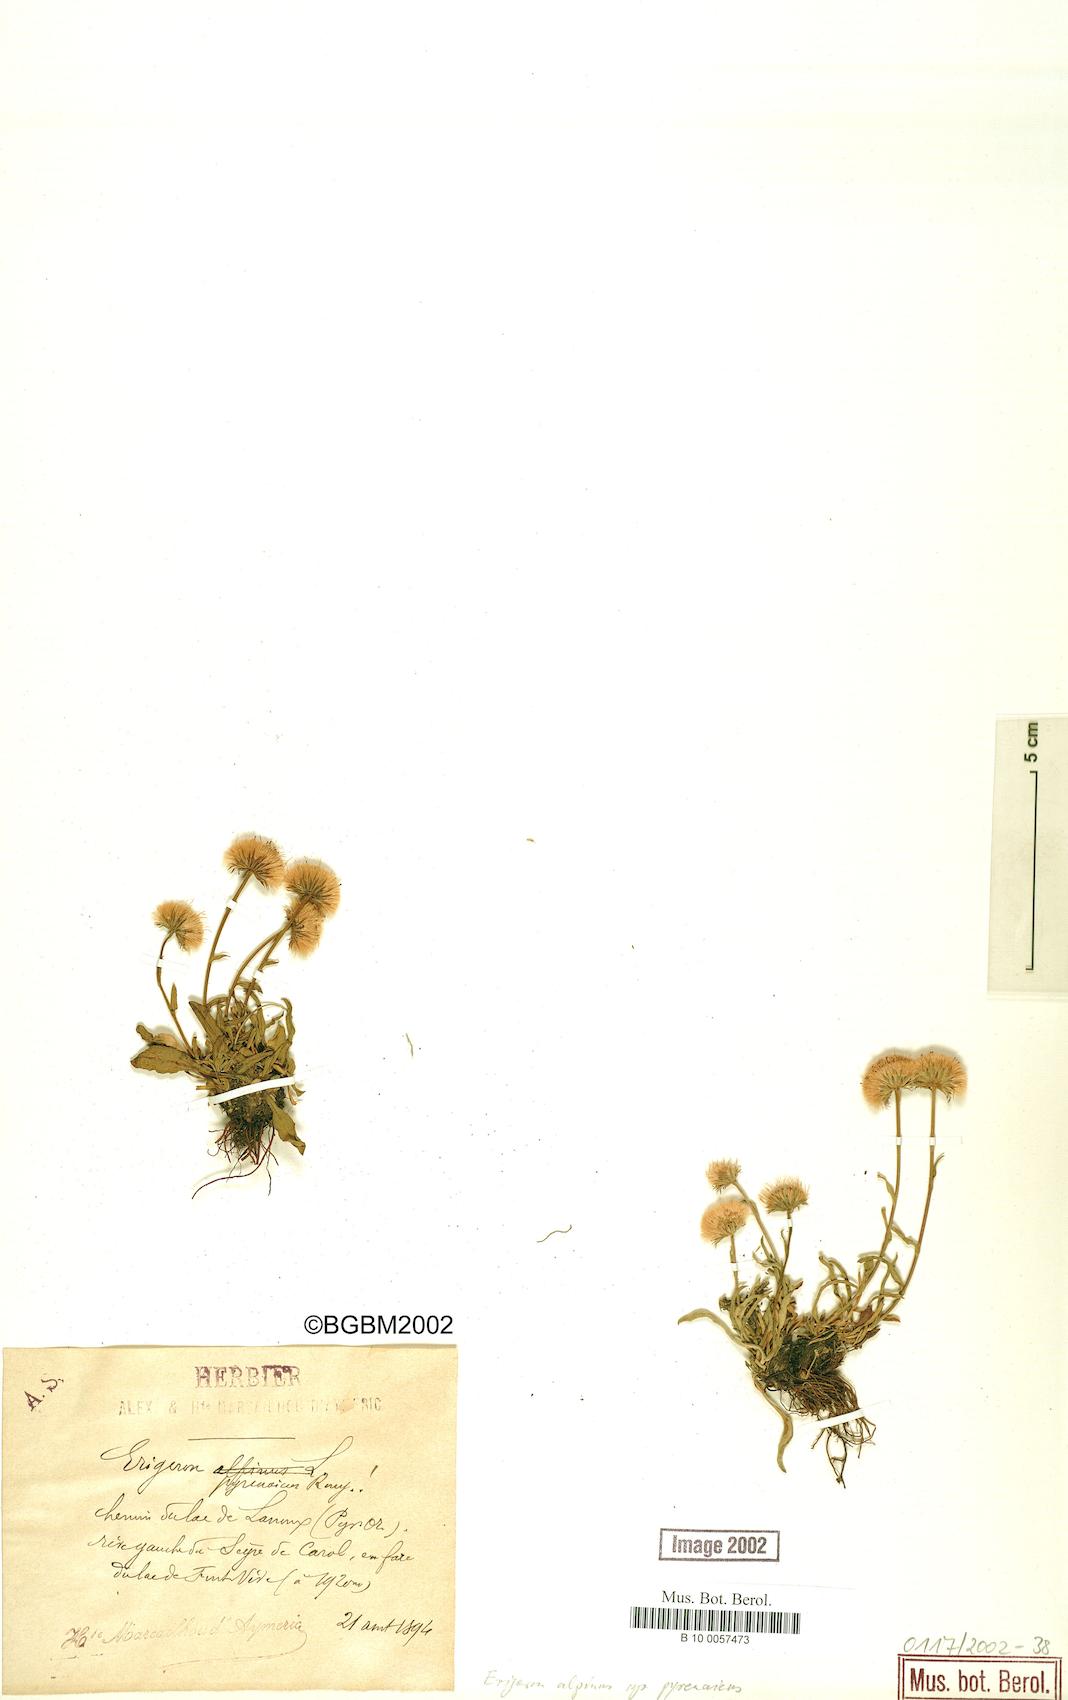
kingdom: Plantae
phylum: Tracheophyta
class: Magnoliopsida
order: Asterales
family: Asteraceae
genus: Erigeron
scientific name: Erigeron uniflorus
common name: Northern daisy
